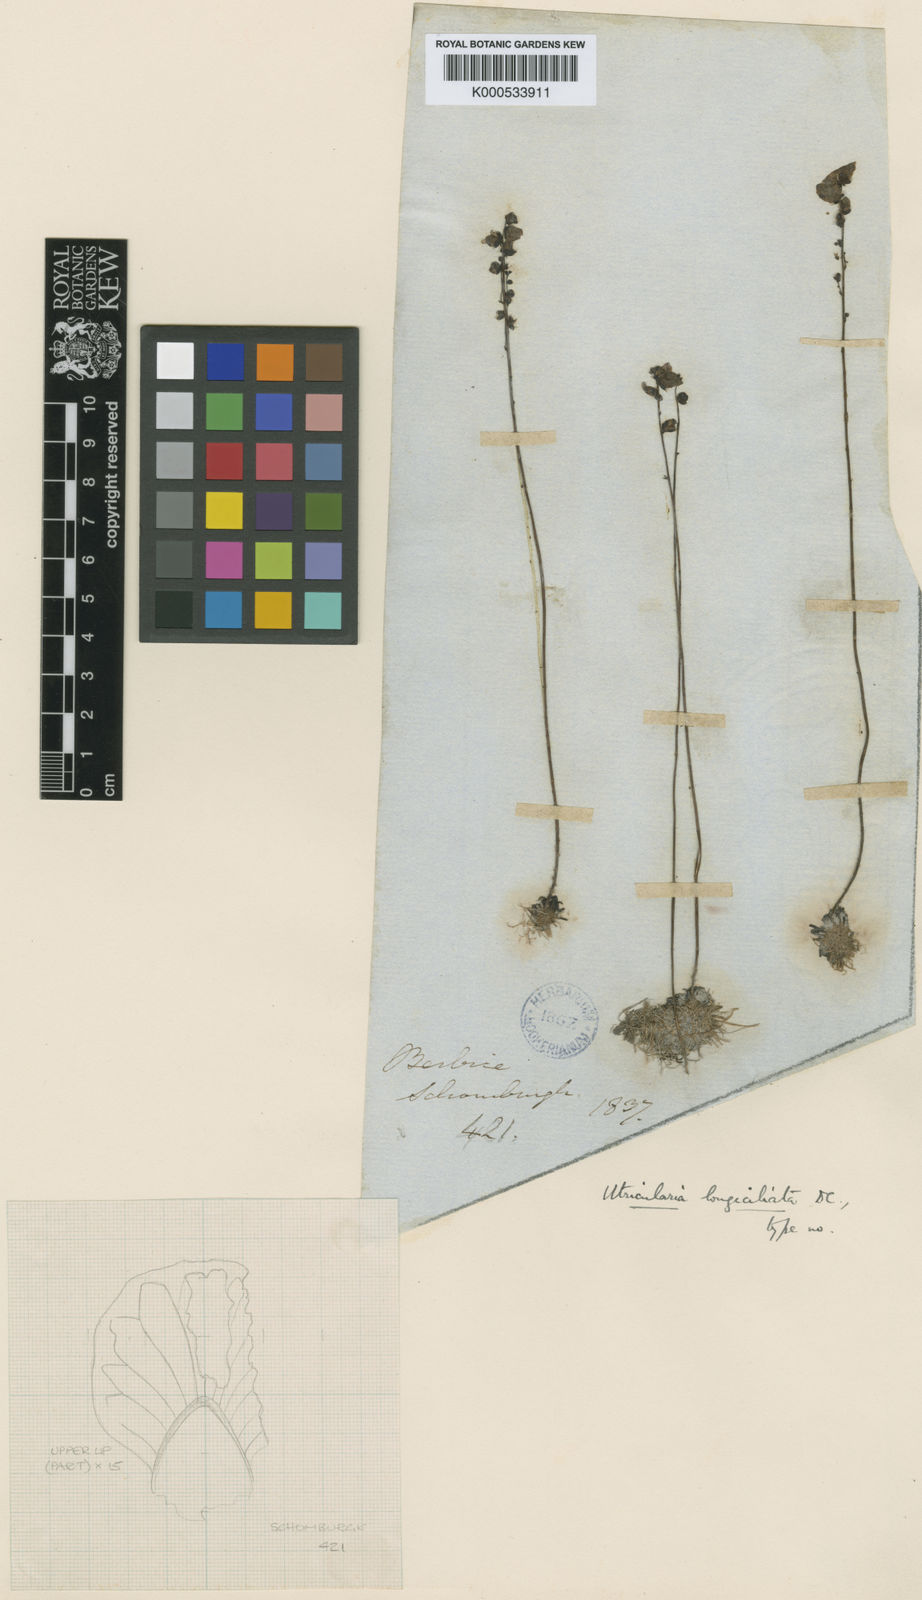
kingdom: Plantae
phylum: Tracheophyta
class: Magnoliopsida
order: Lamiales
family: Lentibulariaceae
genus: Utricularia
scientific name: Utricularia longeciliata
